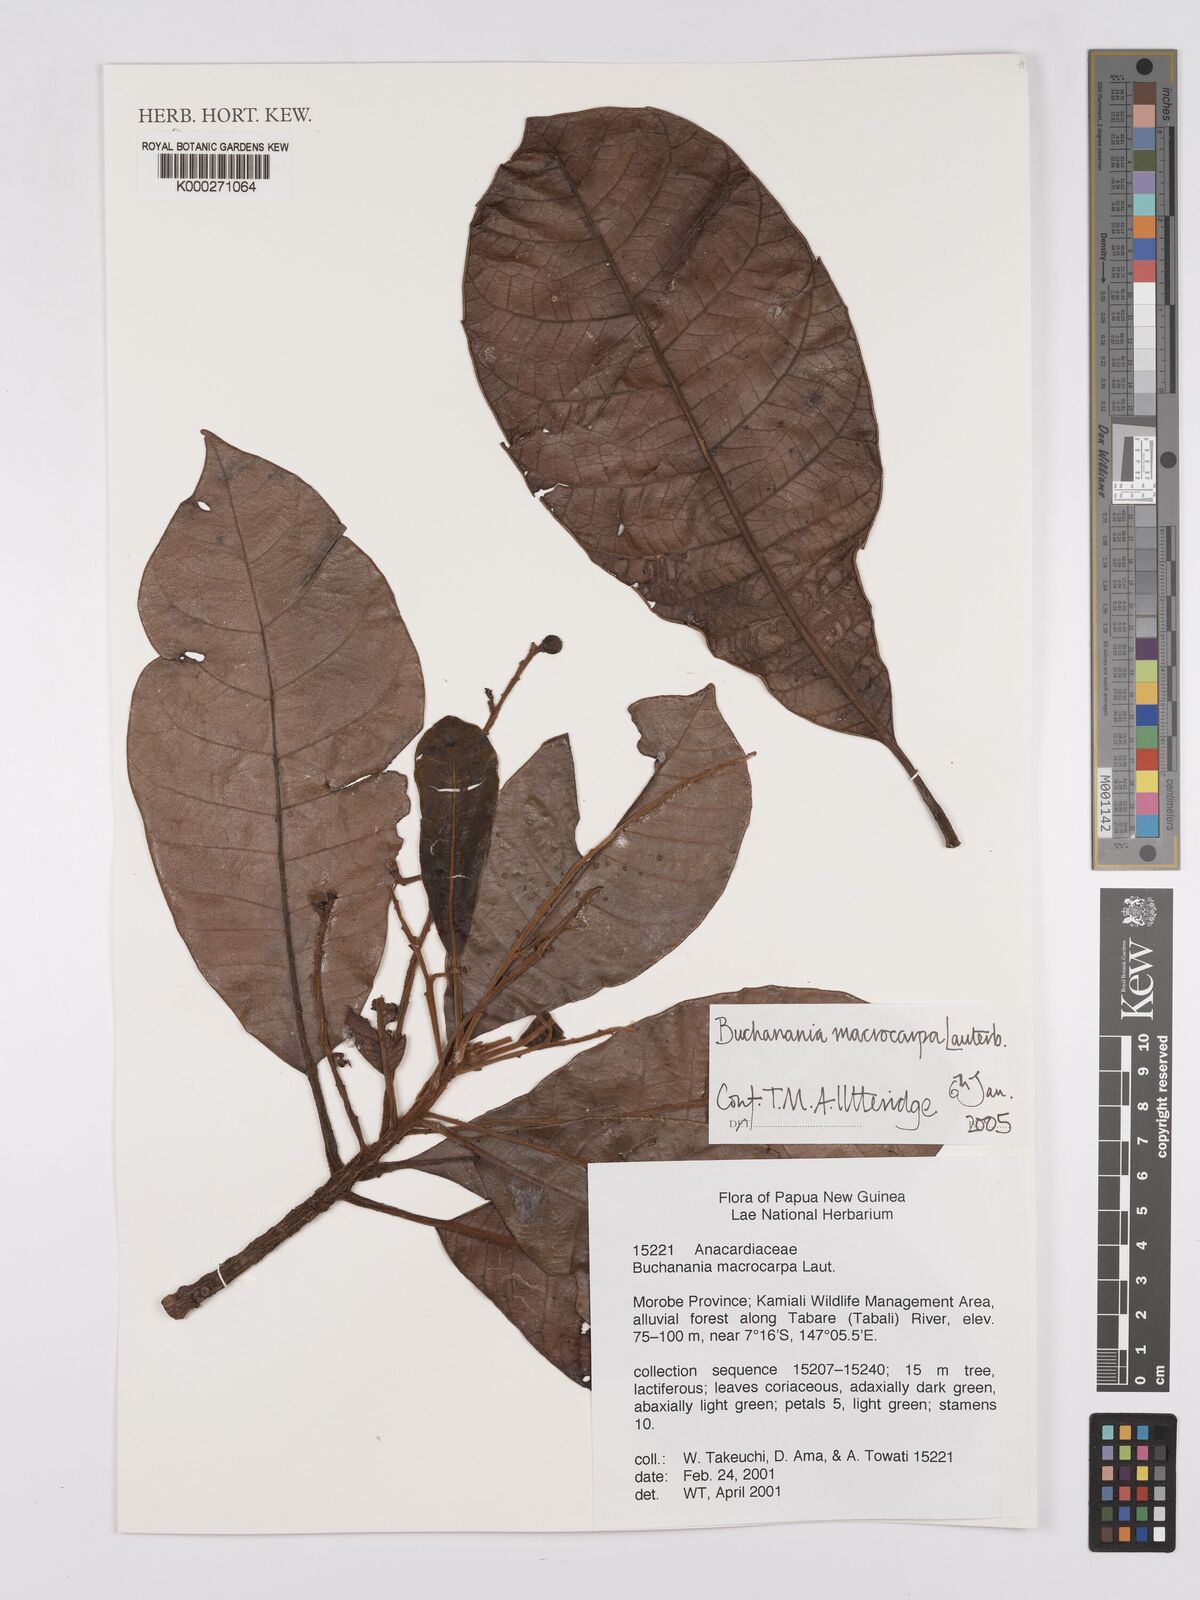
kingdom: Plantae
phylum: Tracheophyta
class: Magnoliopsida
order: Sapindales
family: Anacardiaceae
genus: Buchanania
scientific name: Buchanania macrocarpa
